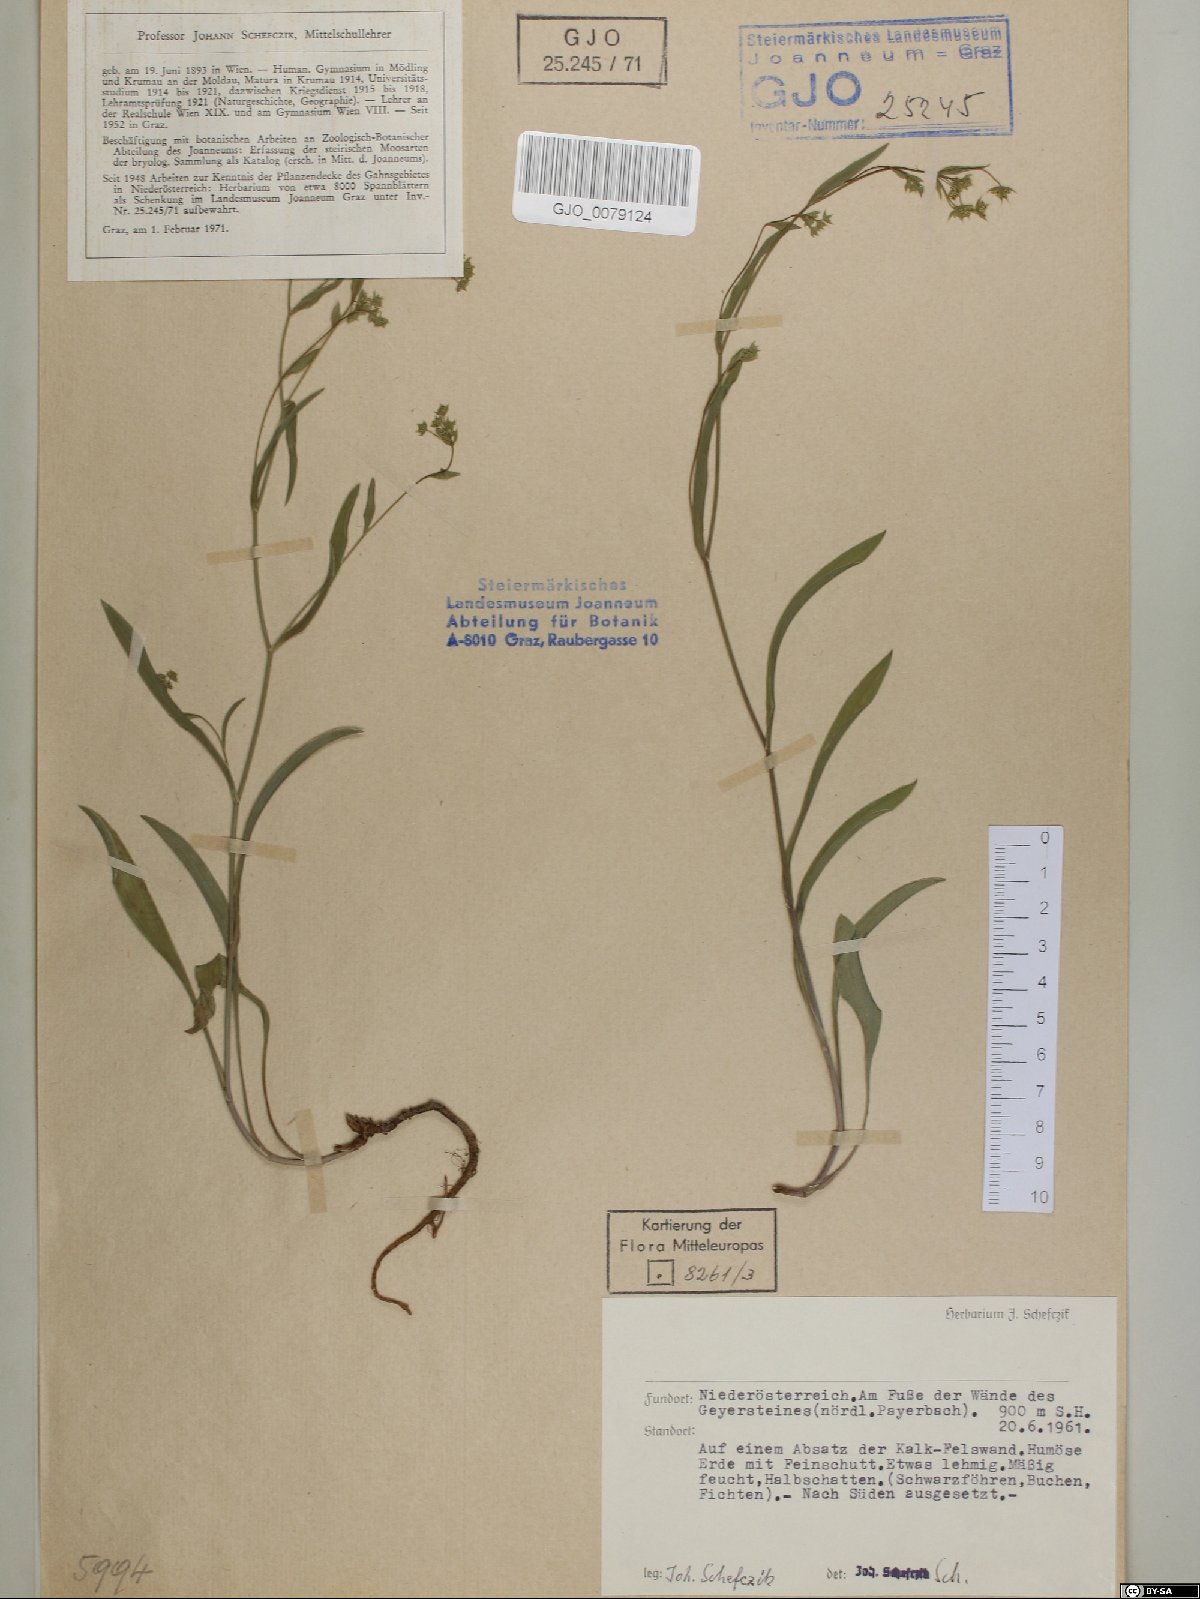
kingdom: Plantae
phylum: Tracheophyta
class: Magnoliopsida
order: Apiales
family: Apiaceae
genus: Bupleurum
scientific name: Bupleurum falcatum
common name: Sickle-leaved hare's-ear
